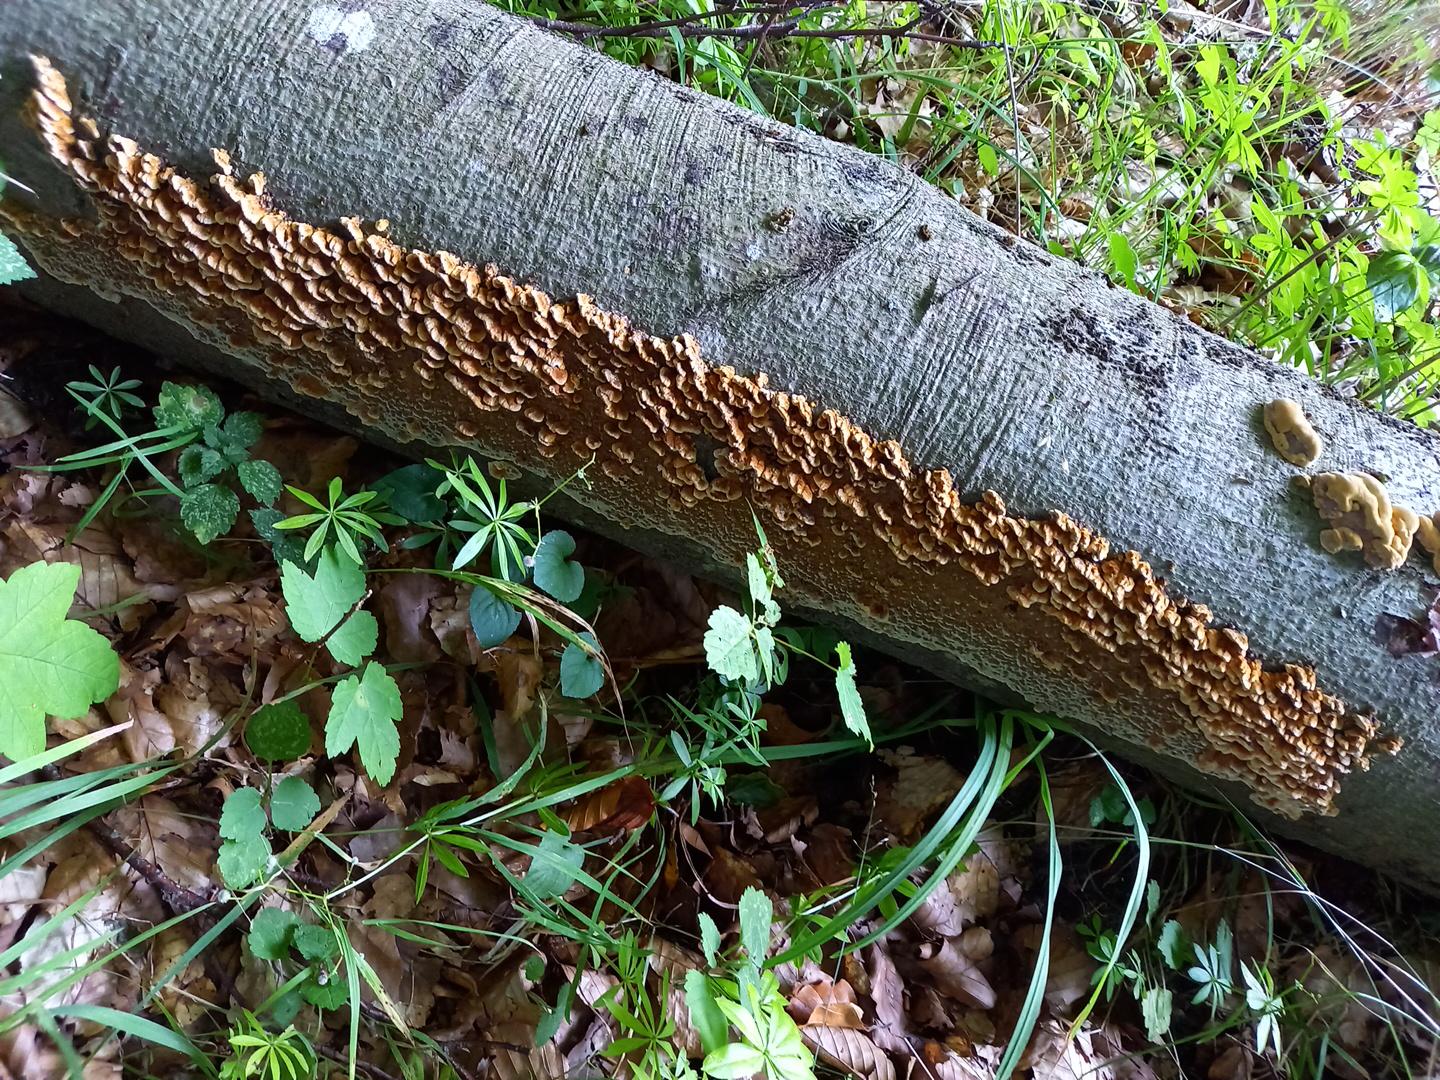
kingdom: Fungi
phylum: Basidiomycota
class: Agaricomycetes
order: Hymenochaetales
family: Hymenochaetaceae
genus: Mensularia
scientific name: Mensularia nodulosa
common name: bøge-spejlporesvamp
